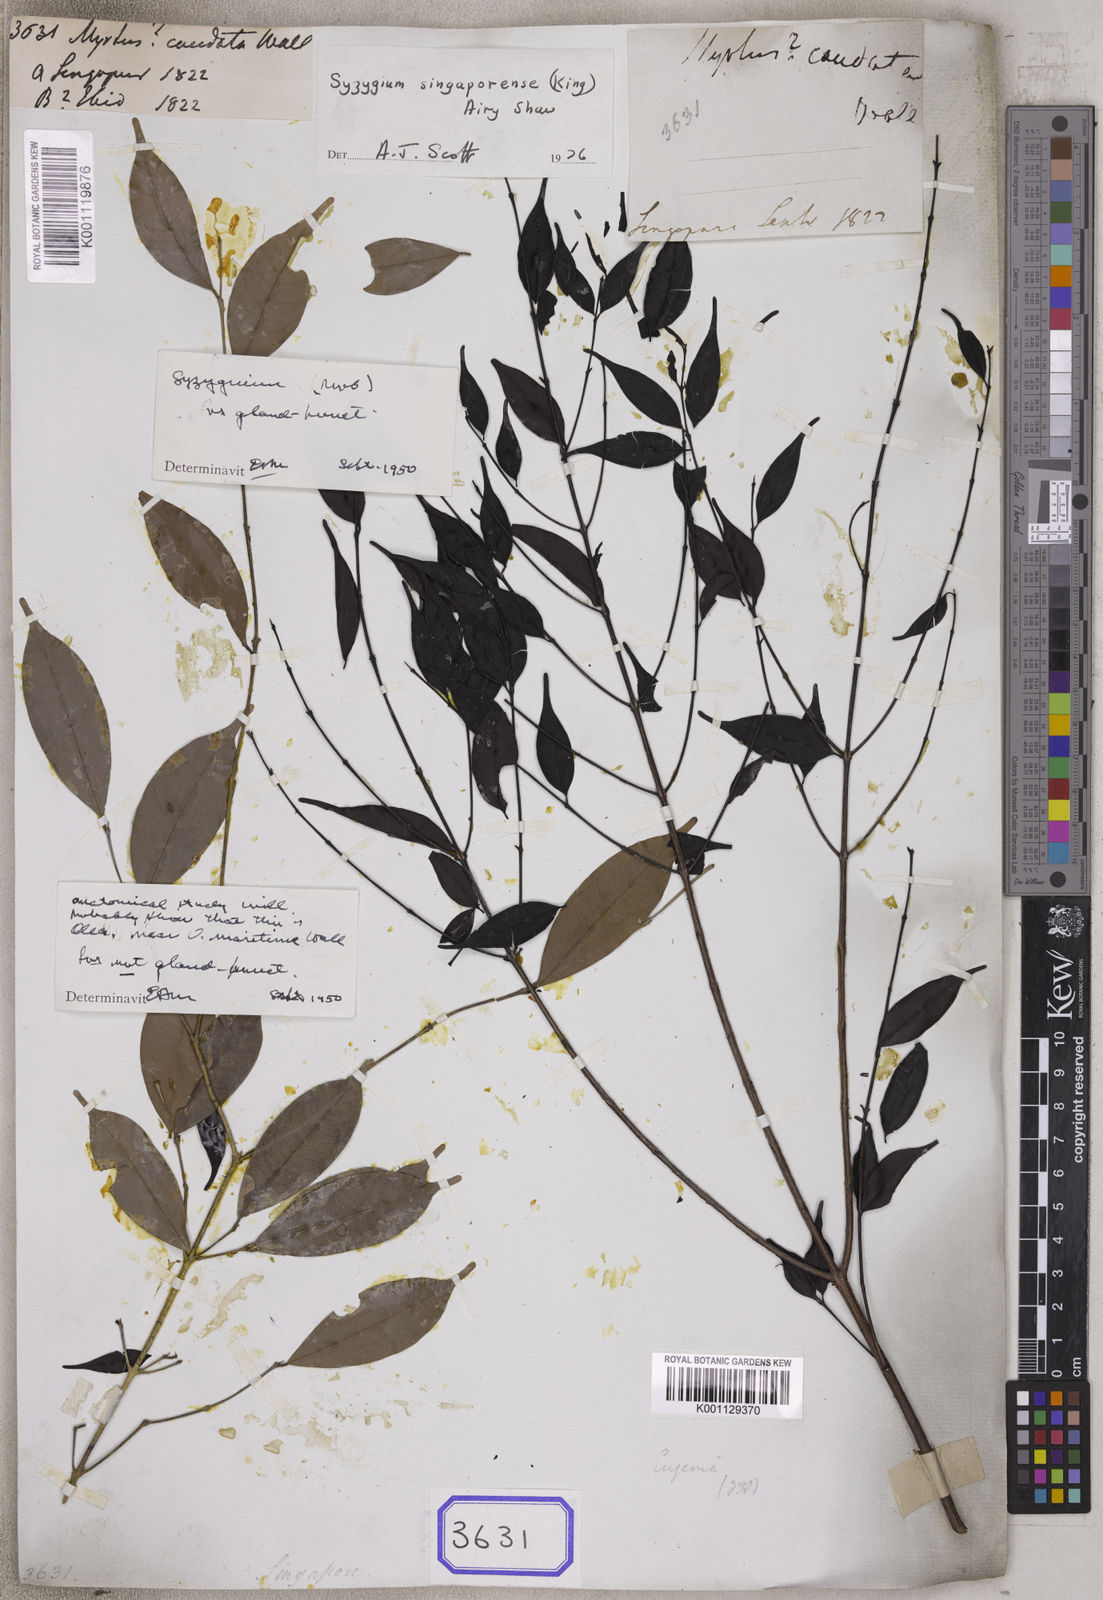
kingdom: Plantae
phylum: Tracheophyta
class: Magnoliopsida
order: Myrtales
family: Myrtaceae
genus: Syzygium
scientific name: Syzygium singaporense
